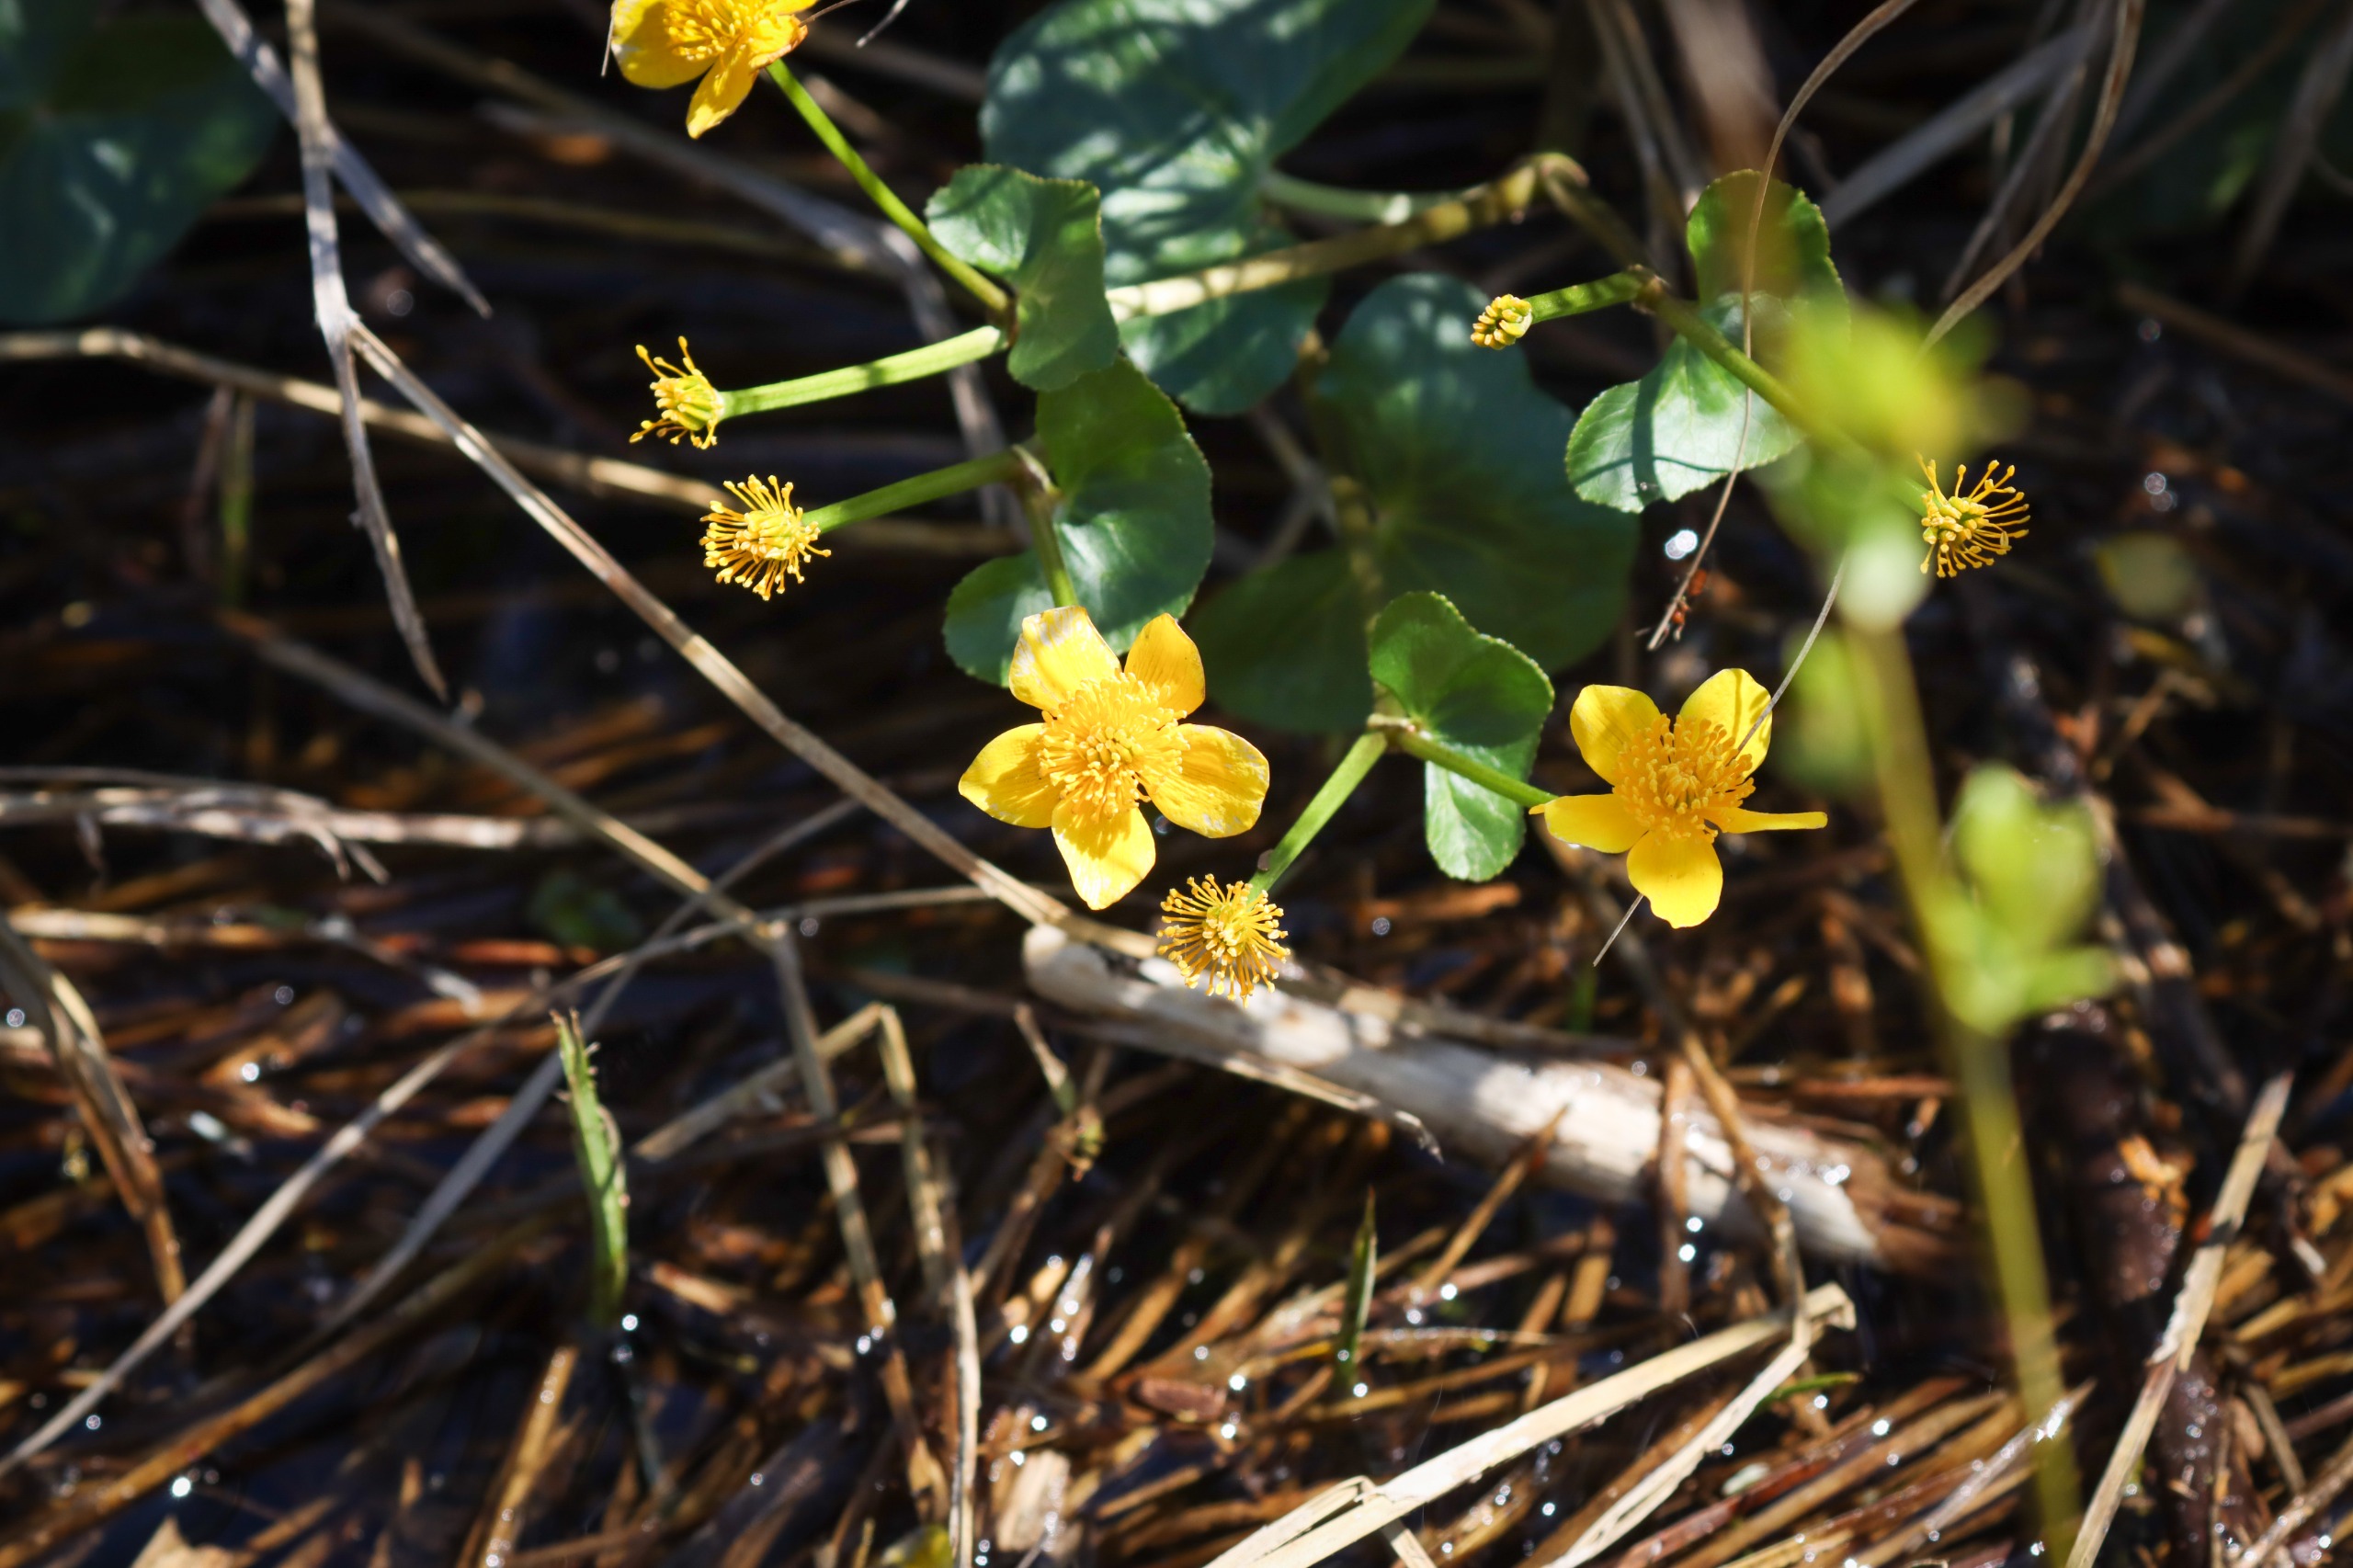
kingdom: Plantae
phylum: Tracheophyta
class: Magnoliopsida
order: Ranunculales
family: Ranunculaceae
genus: Caltha
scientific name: Caltha palustris
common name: Eng-kabbeleje
